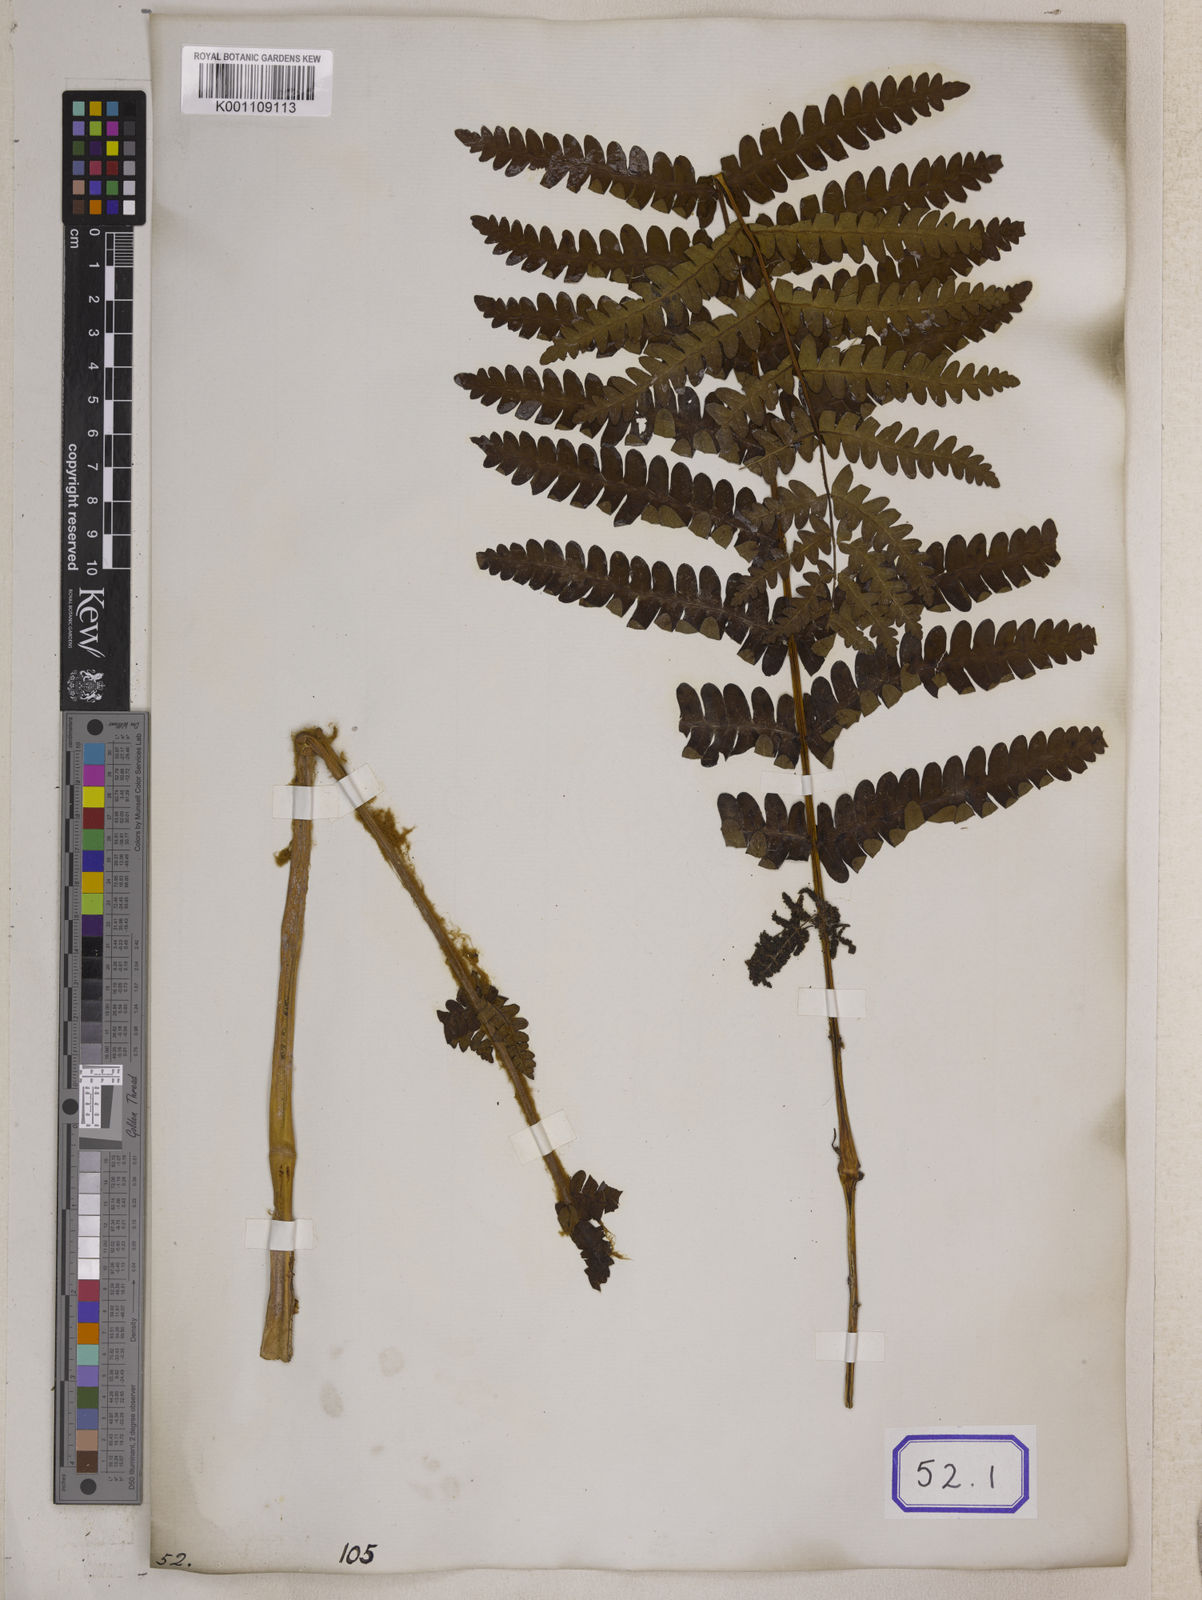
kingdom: Plantae
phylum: Tracheophyta
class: Polypodiopsida
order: Osmundales
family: Osmundaceae
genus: Claytosmunda
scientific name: Claytosmunda claytoniana
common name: Clayton's fern
